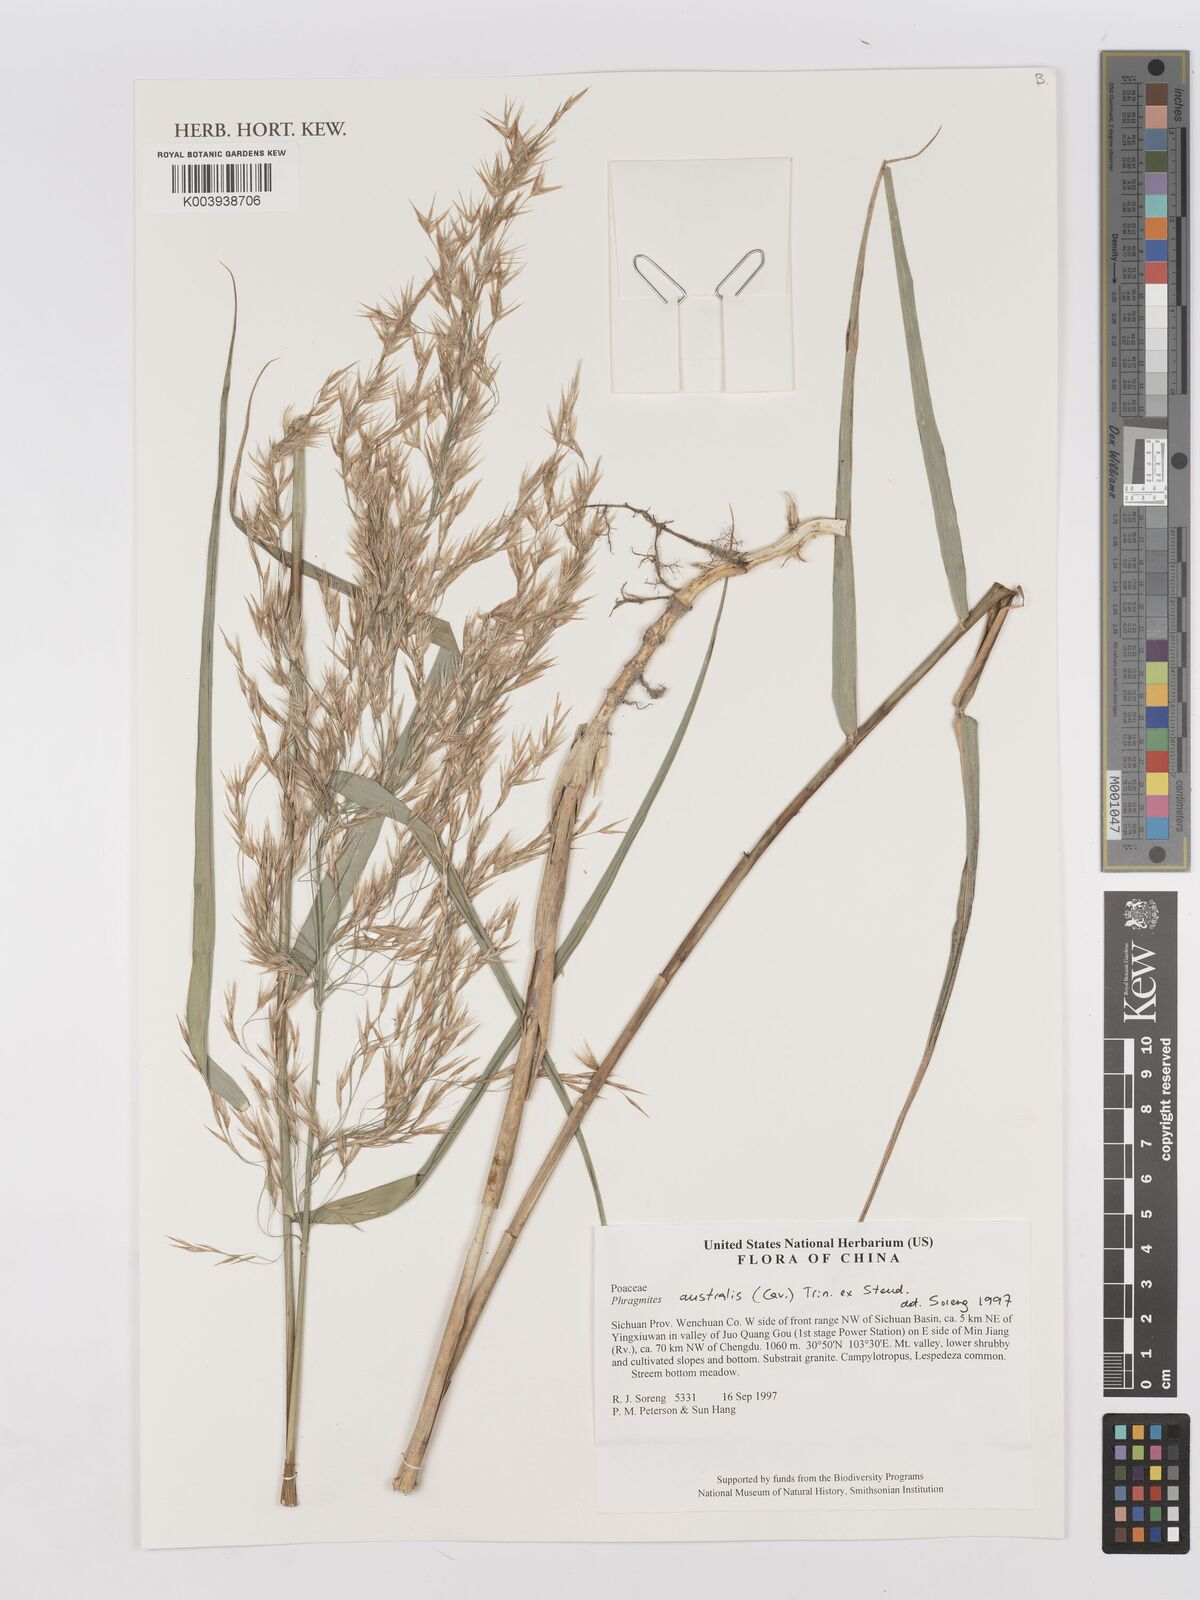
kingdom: Plantae
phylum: Tracheophyta
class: Liliopsida
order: Poales
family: Poaceae
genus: Phragmites
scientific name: Phragmites australis
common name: Common reed
